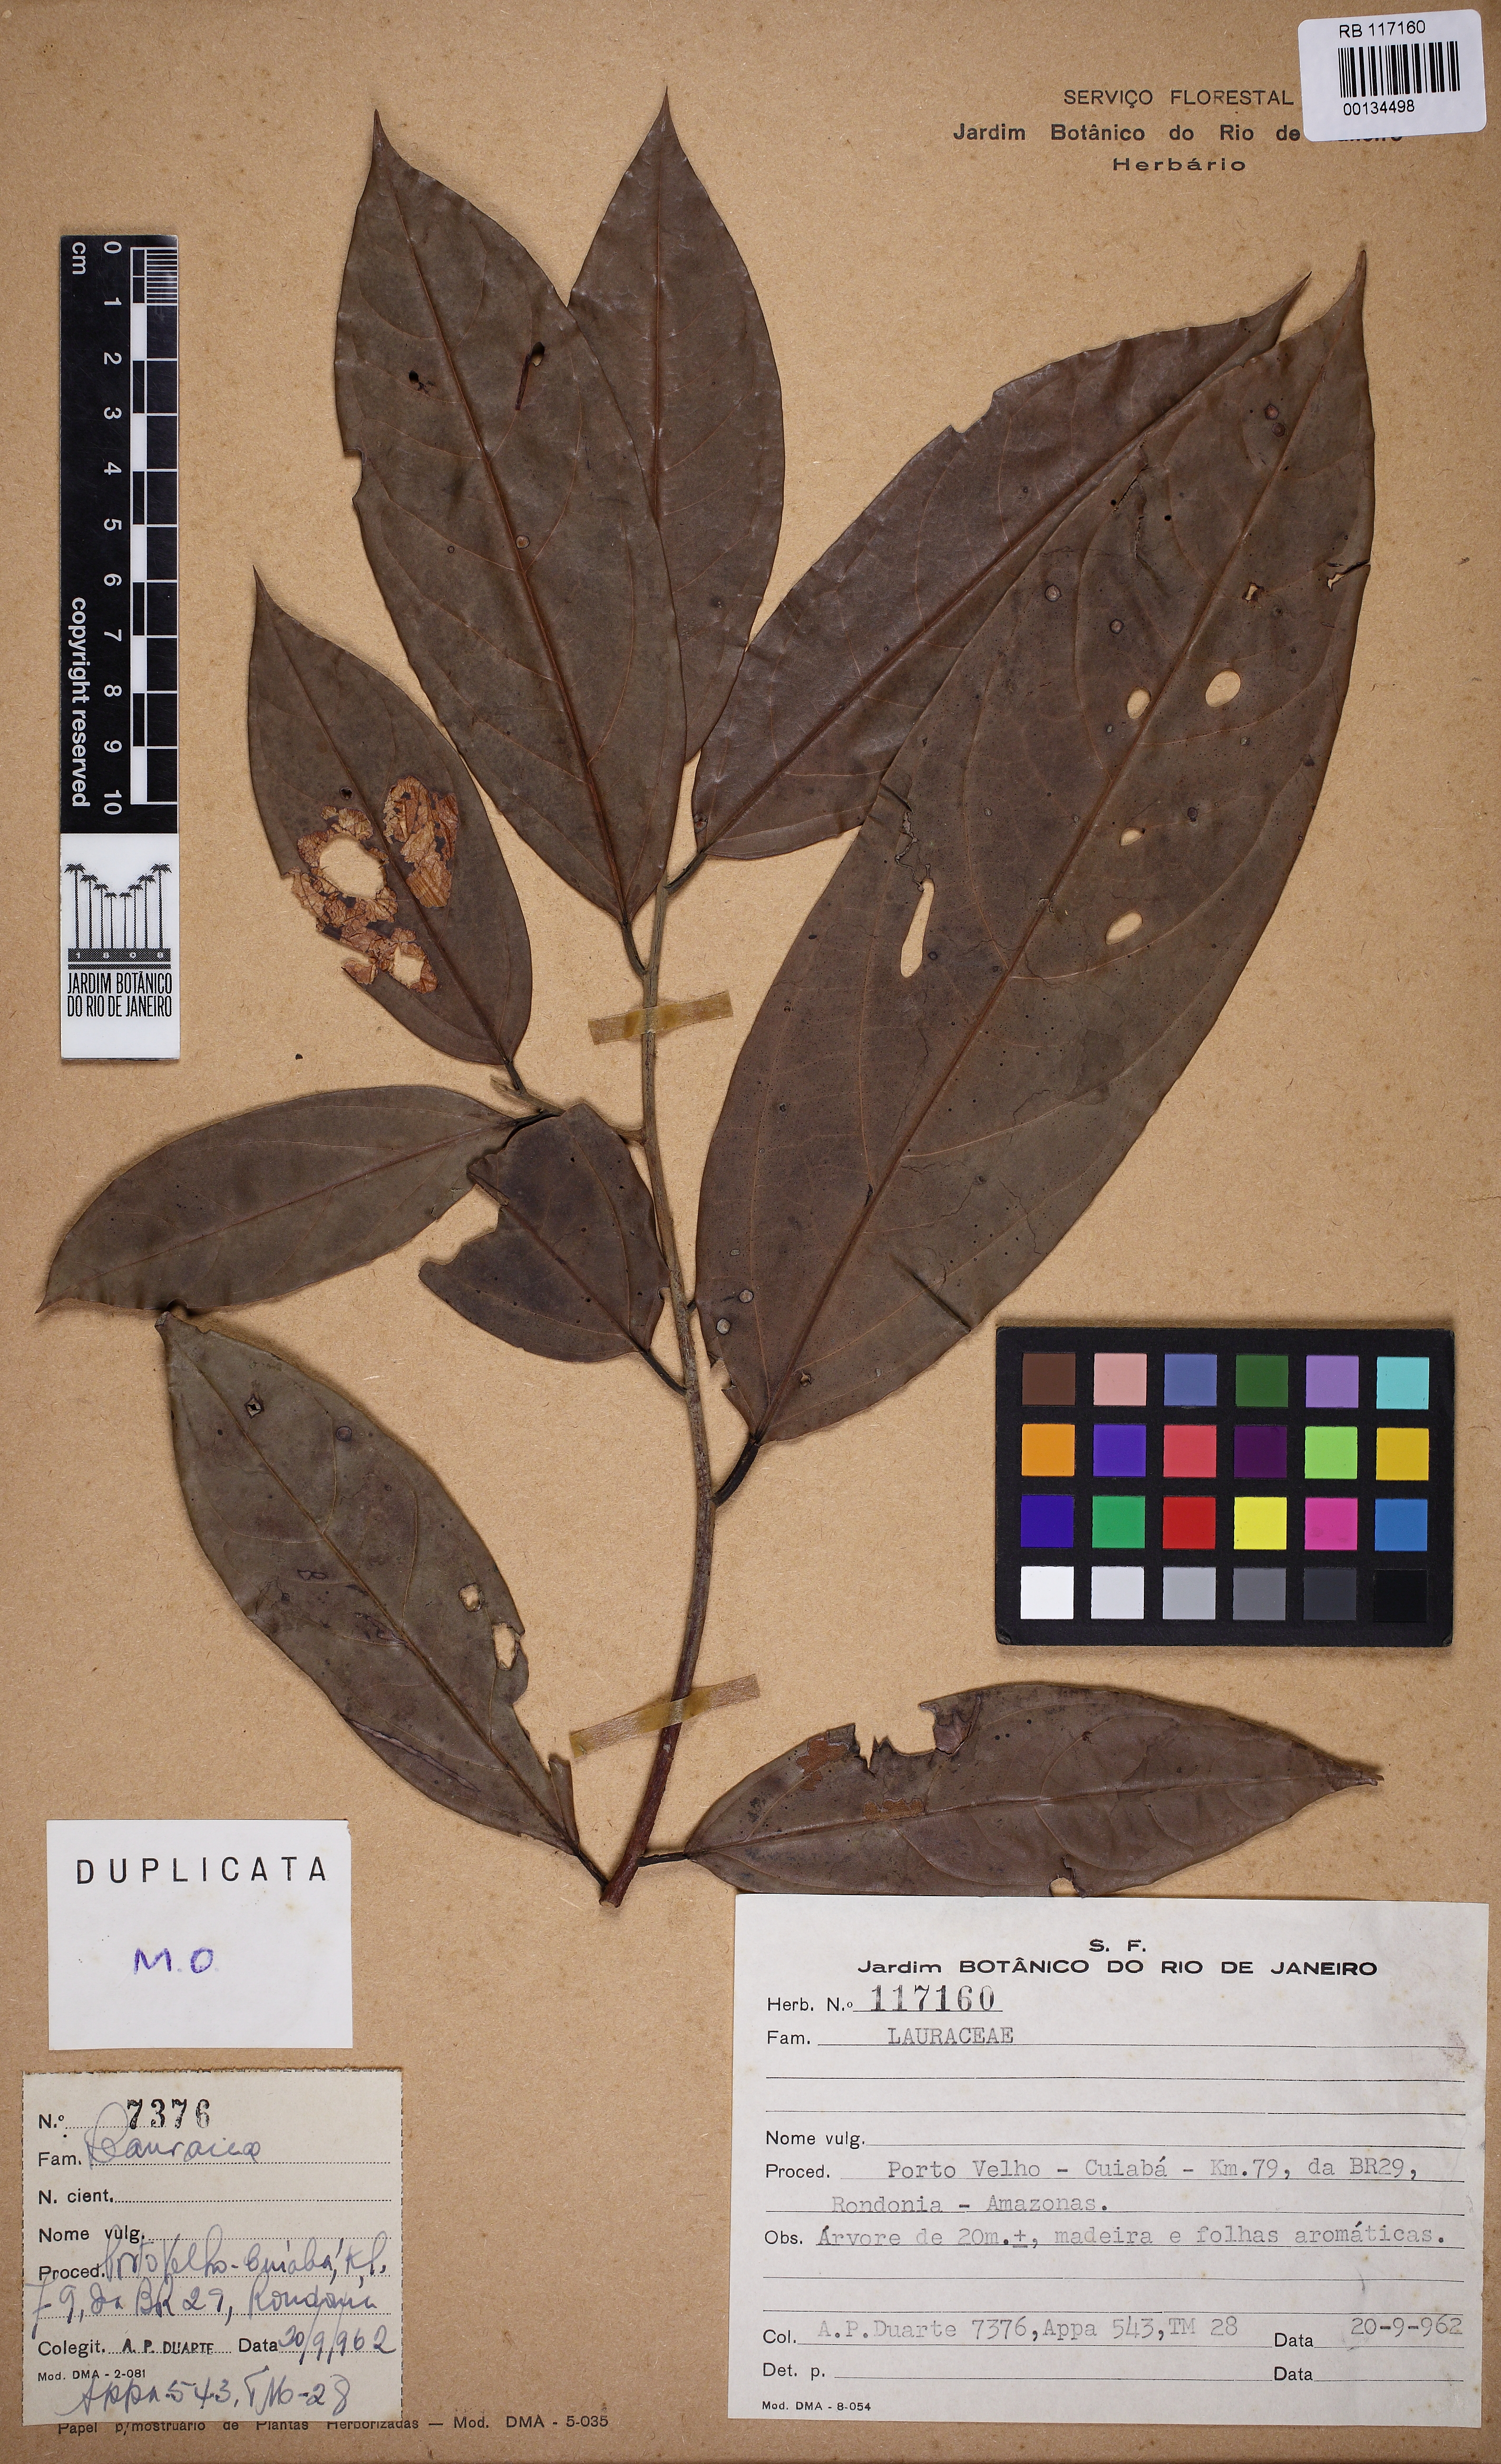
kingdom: Plantae
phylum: Tracheophyta
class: Magnoliopsida
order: Laurales
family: Lauraceae
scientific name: Lauraceae
